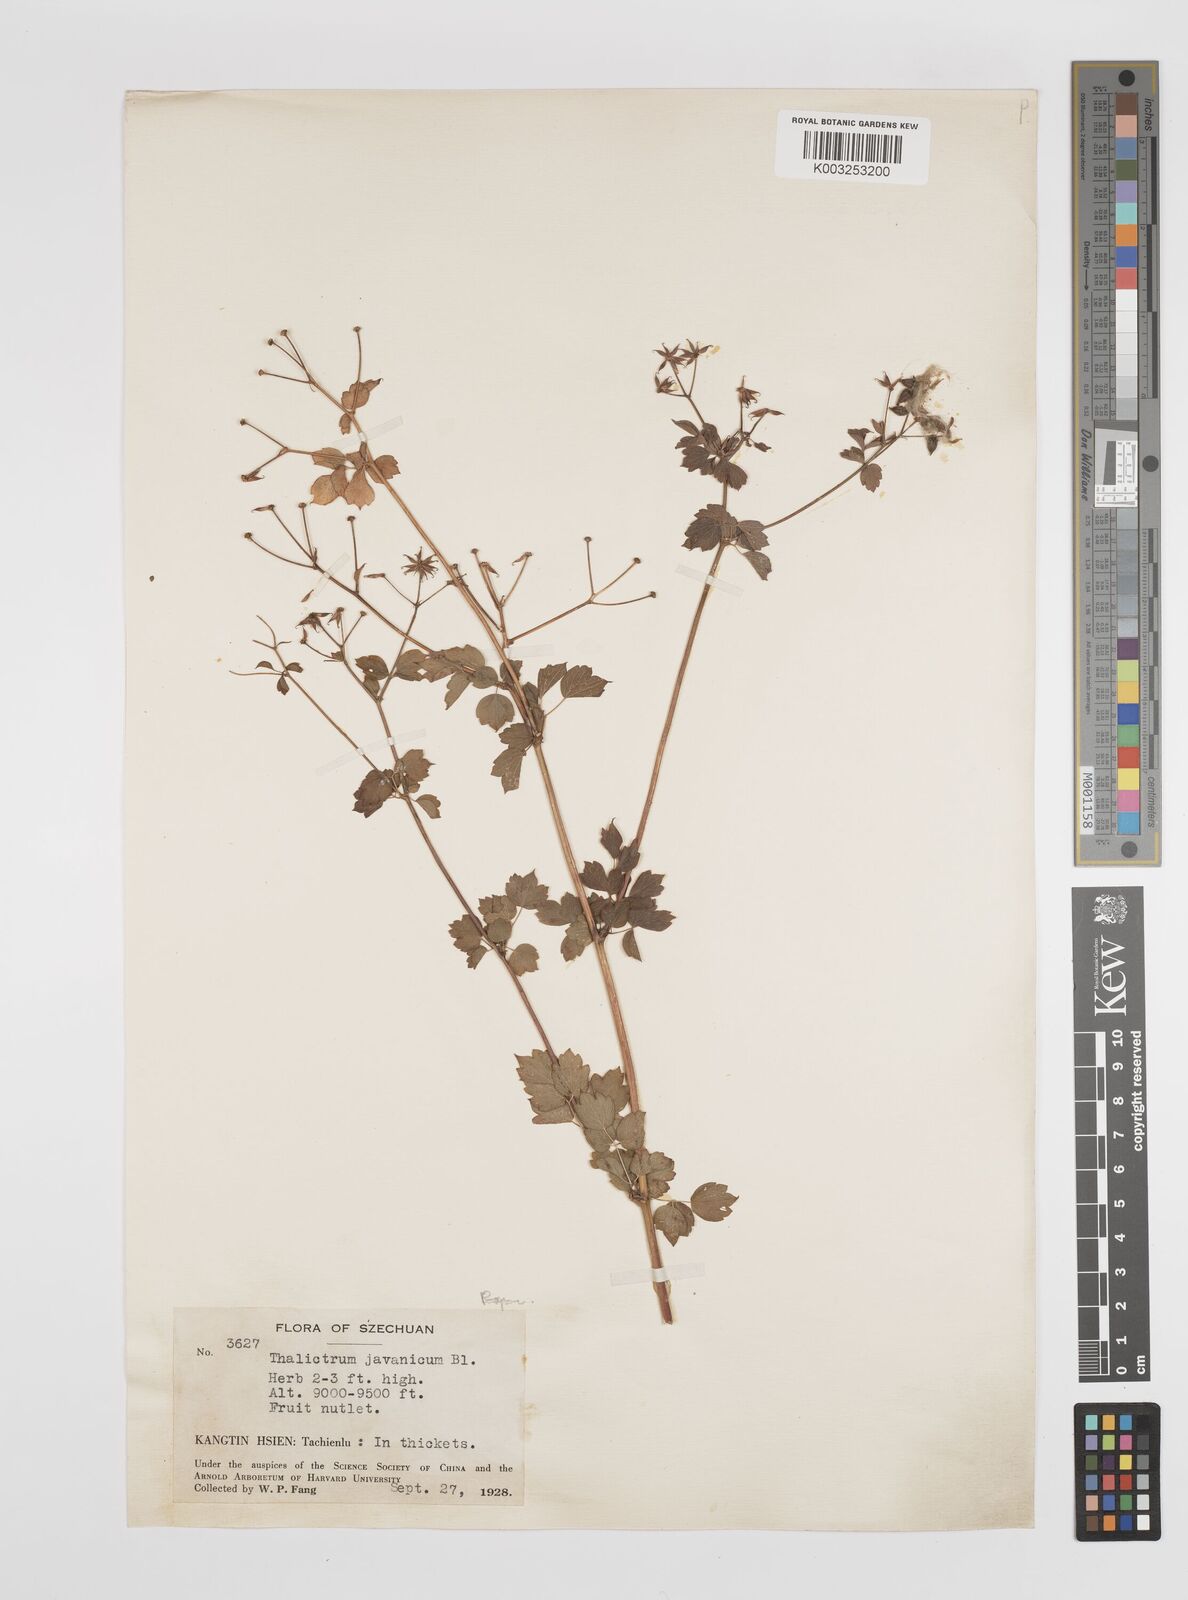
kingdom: Plantae
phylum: Tracheophyta
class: Magnoliopsida
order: Ranunculales
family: Ranunculaceae
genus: Thalictrum
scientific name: Thalictrum javanicum
